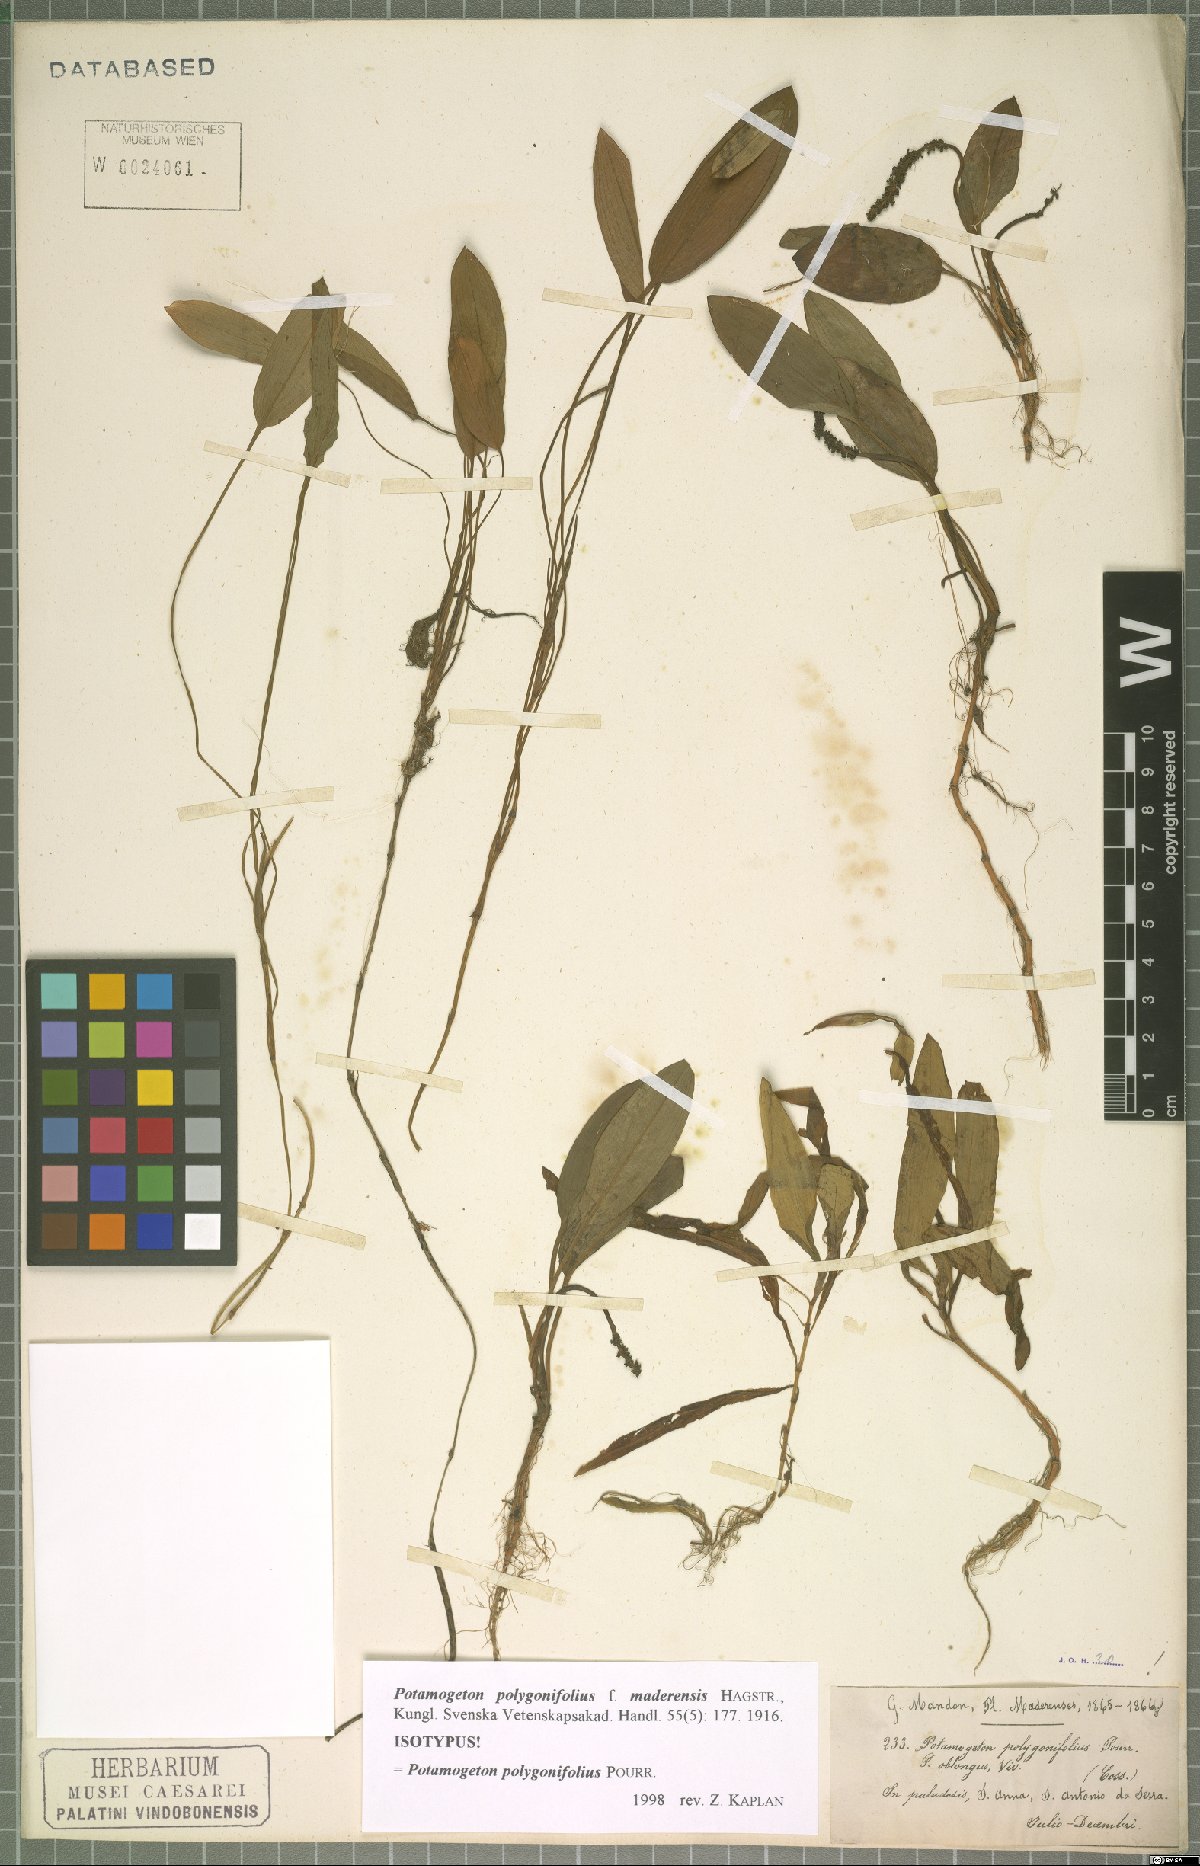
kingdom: Plantae
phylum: Tracheophyta
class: Liliopsida
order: Alismatales
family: Potamogetonaceae
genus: Potamogeton
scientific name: Potamogeton polygonifolius
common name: Bog pondweed
